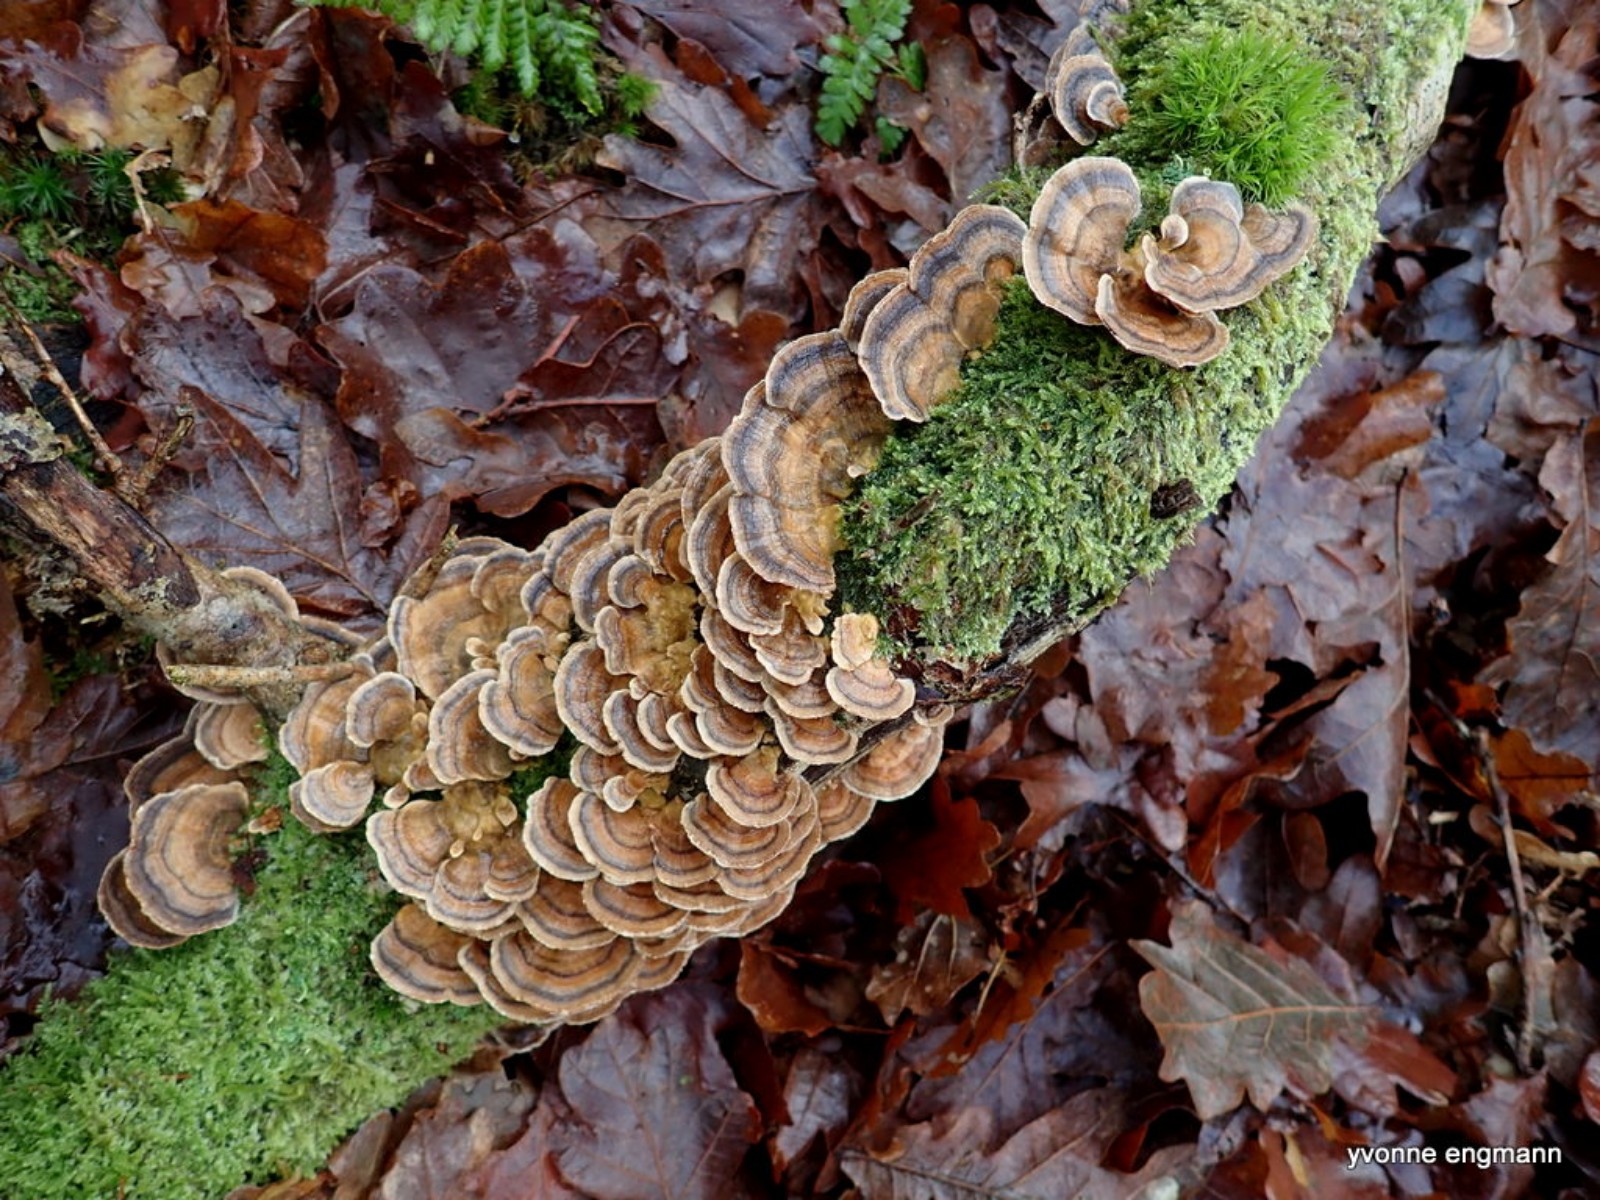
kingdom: Fungi
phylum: Basidiomycota
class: Agaricomycetes
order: Polyporales
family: Polyporaceae
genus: Trametes
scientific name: Trametes versicolor
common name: broget læderporesvamp
